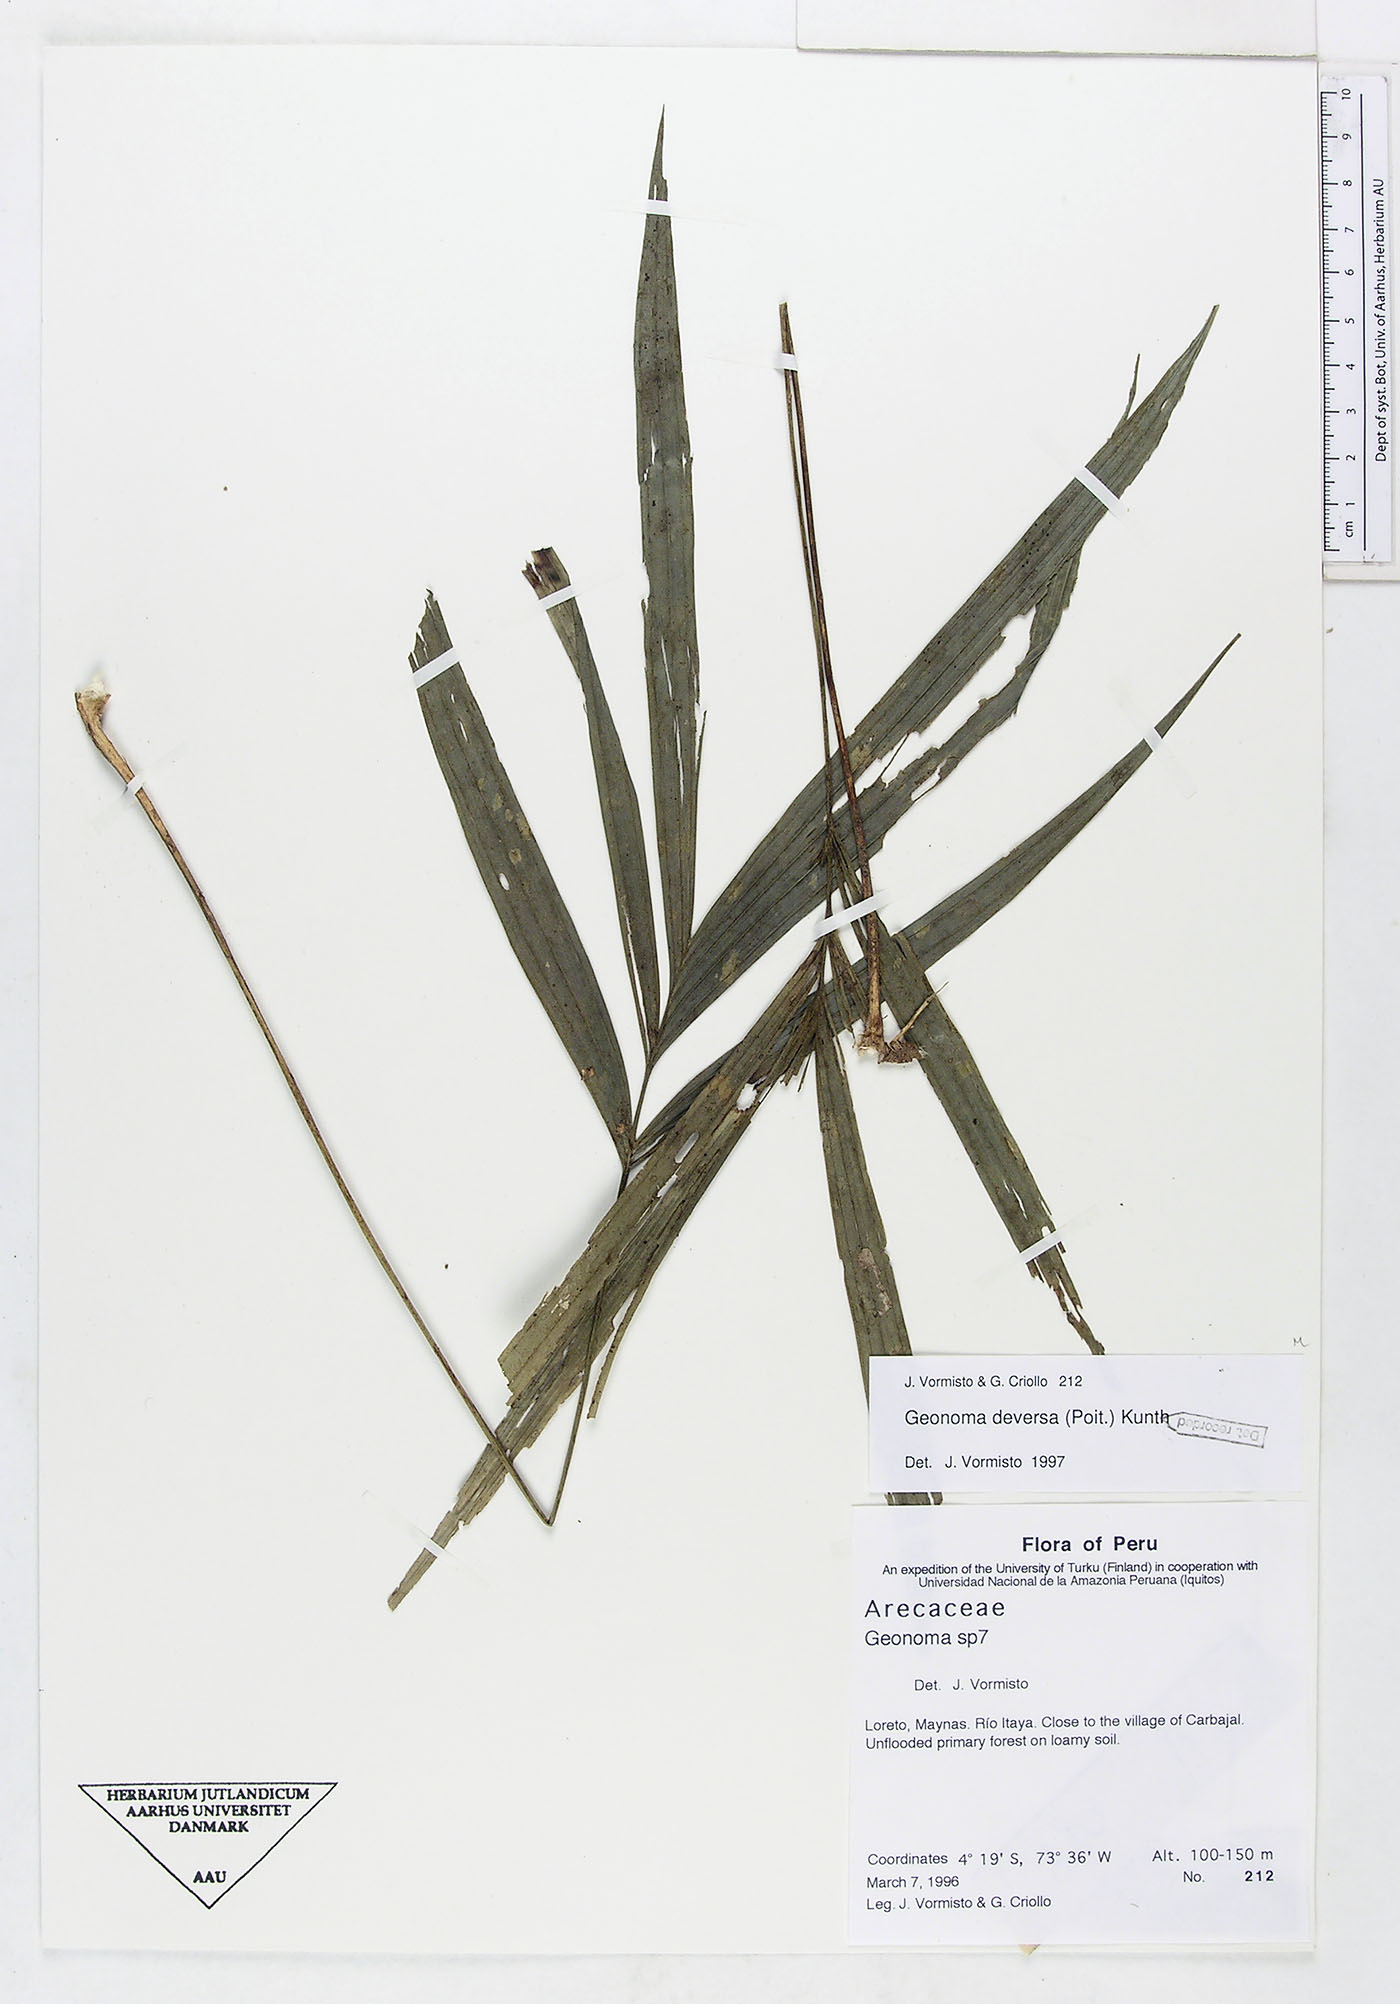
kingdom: Plantae
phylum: Tracheophyta
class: Liliopsida
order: Arecales
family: Arecaceae
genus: Geonoma
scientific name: Geonoma deversa
